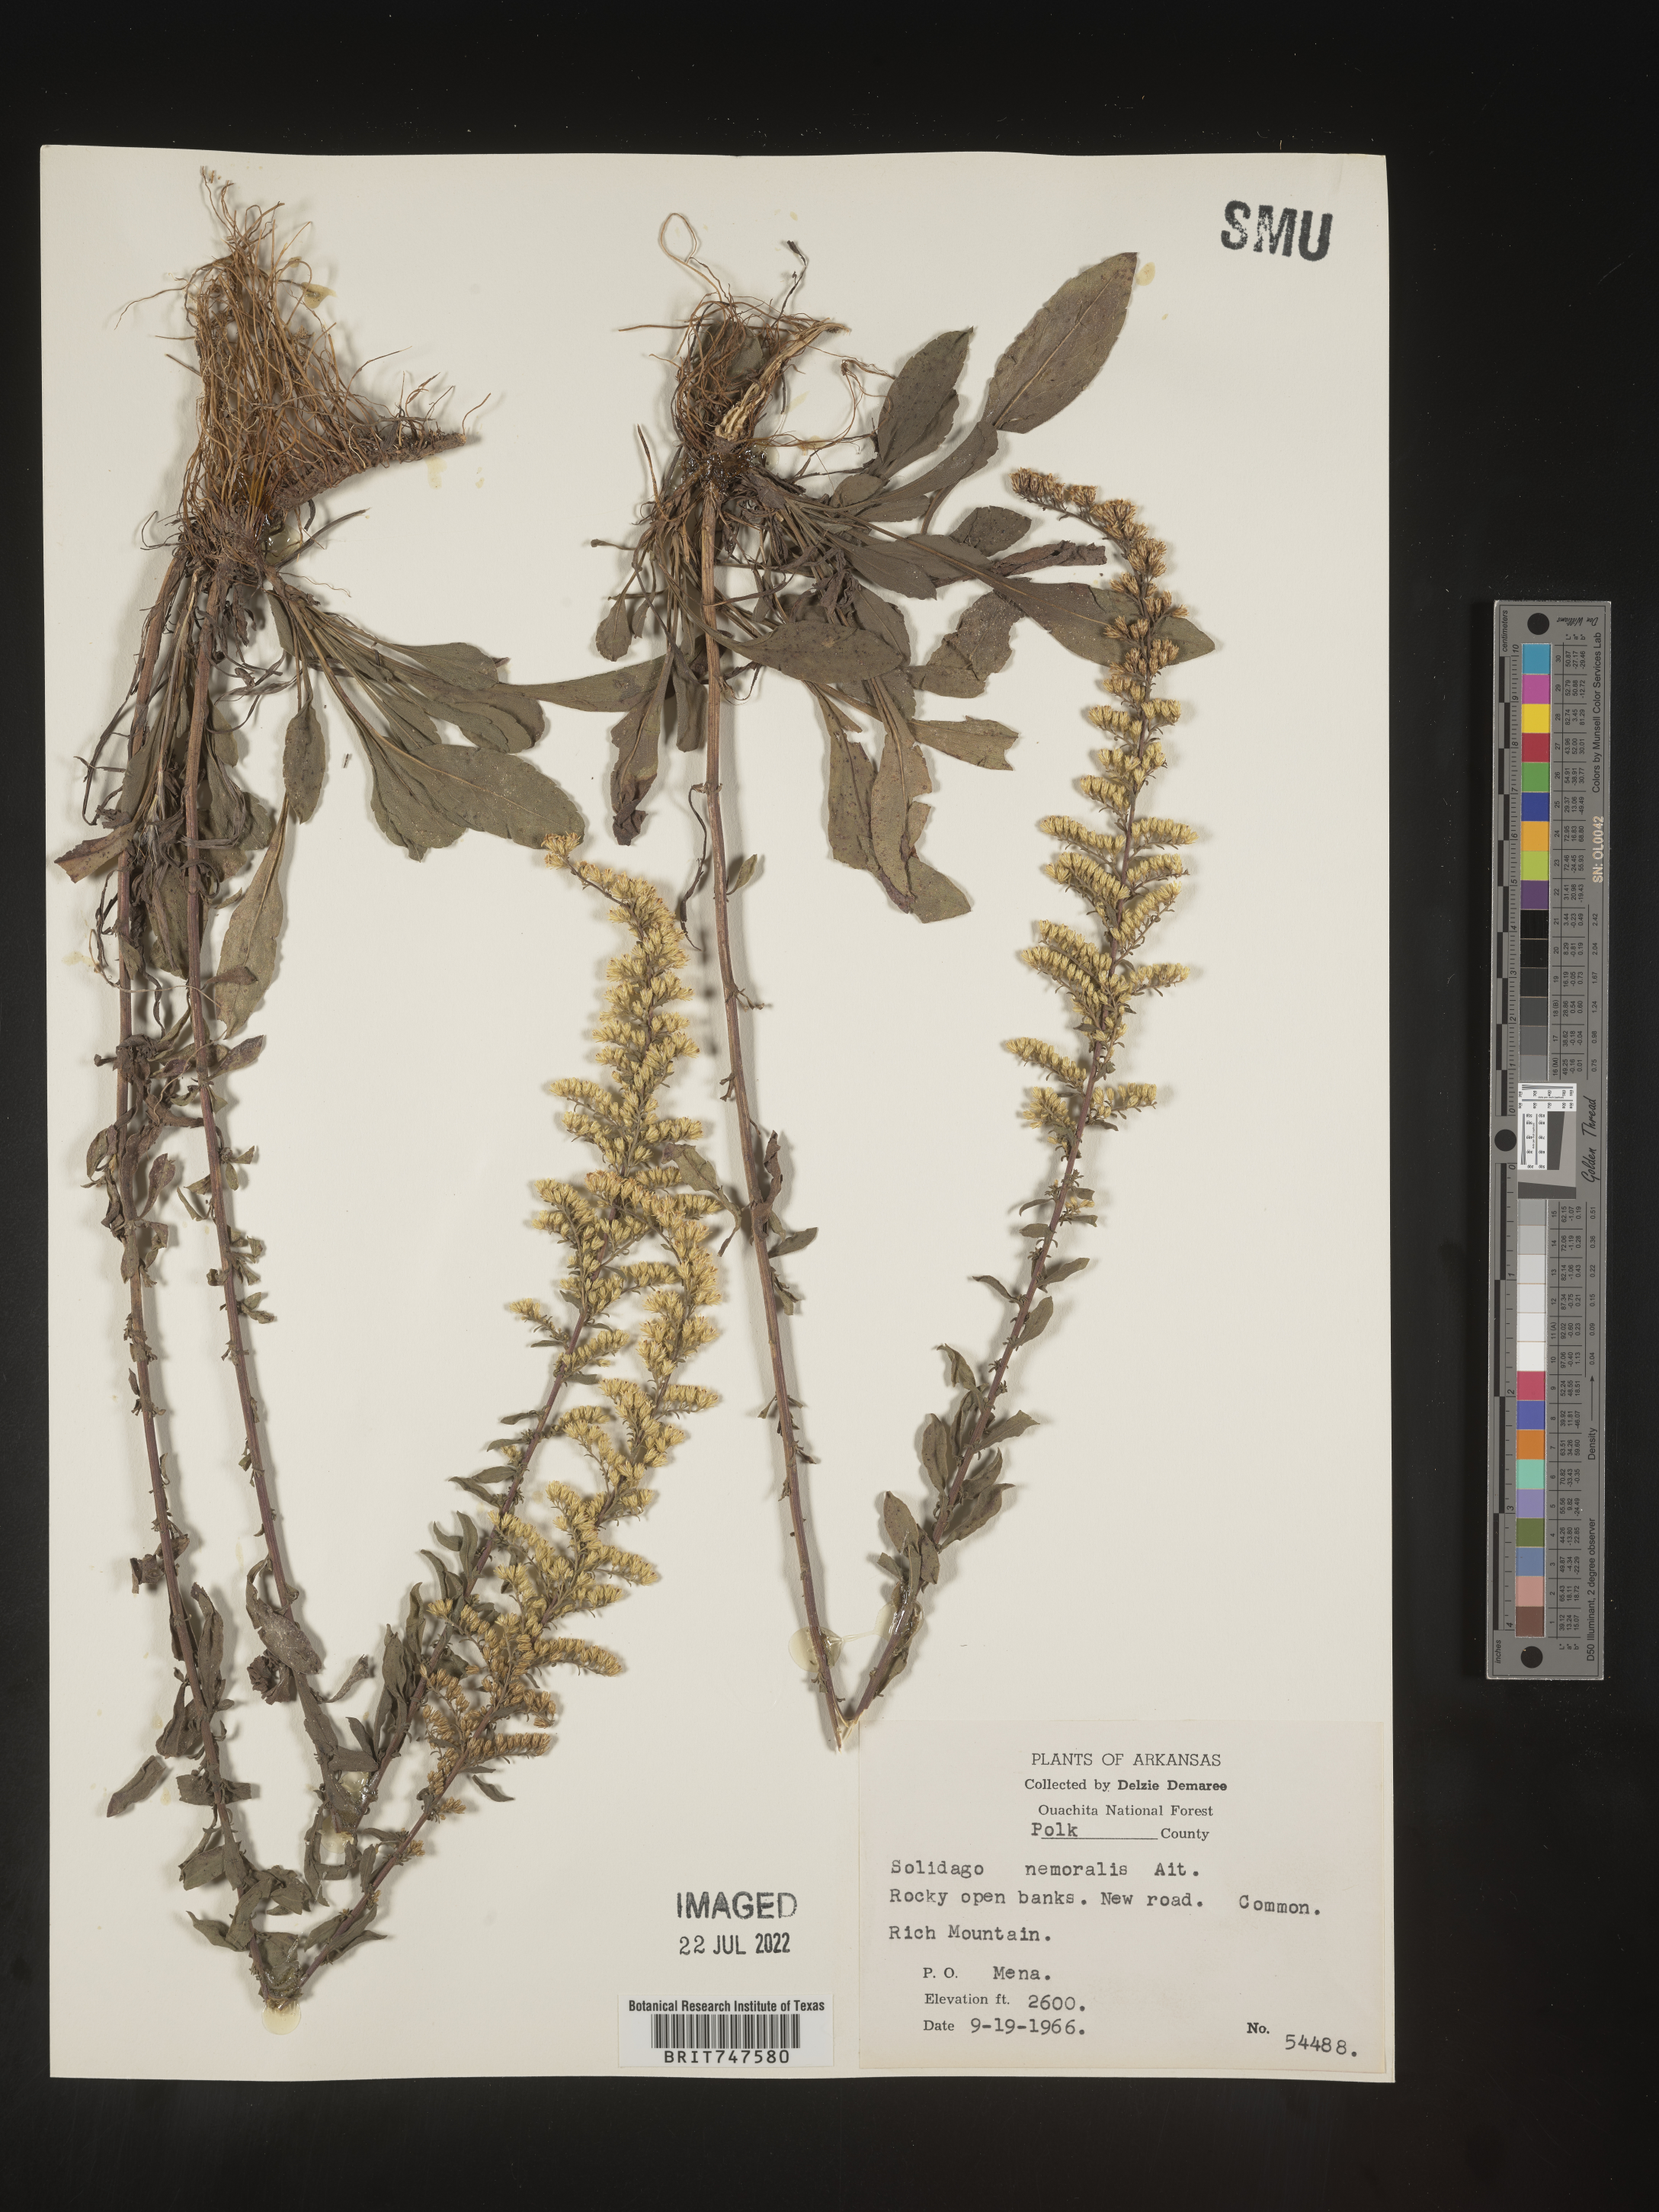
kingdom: Plantae
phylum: Tracheophyta
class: Magnoliopsida
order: Asterales
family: Asteraceae
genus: Solidago
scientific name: Solidago nemoralis
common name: Grey goldenrod
